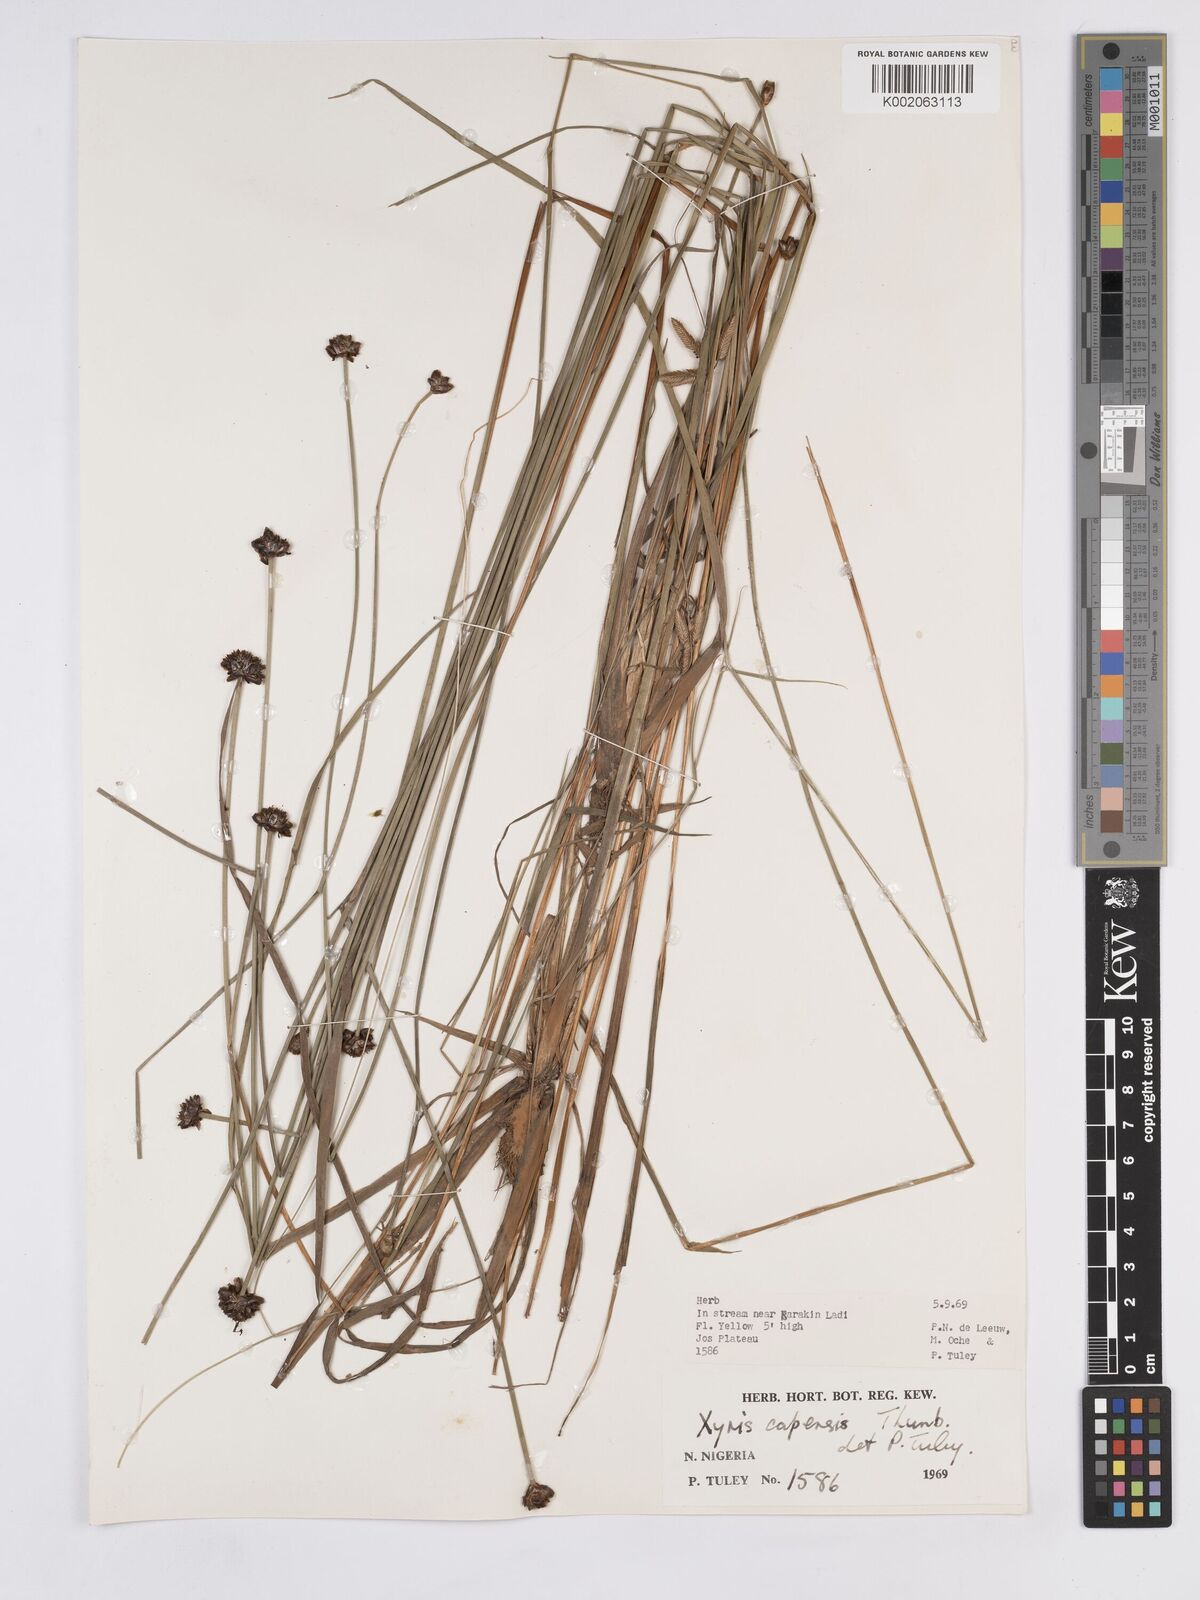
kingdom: Plantae
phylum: Tracheophyta
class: Liliopsida
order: Poales
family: Xyridaceae
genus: Xyris
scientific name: Xyris capensis
